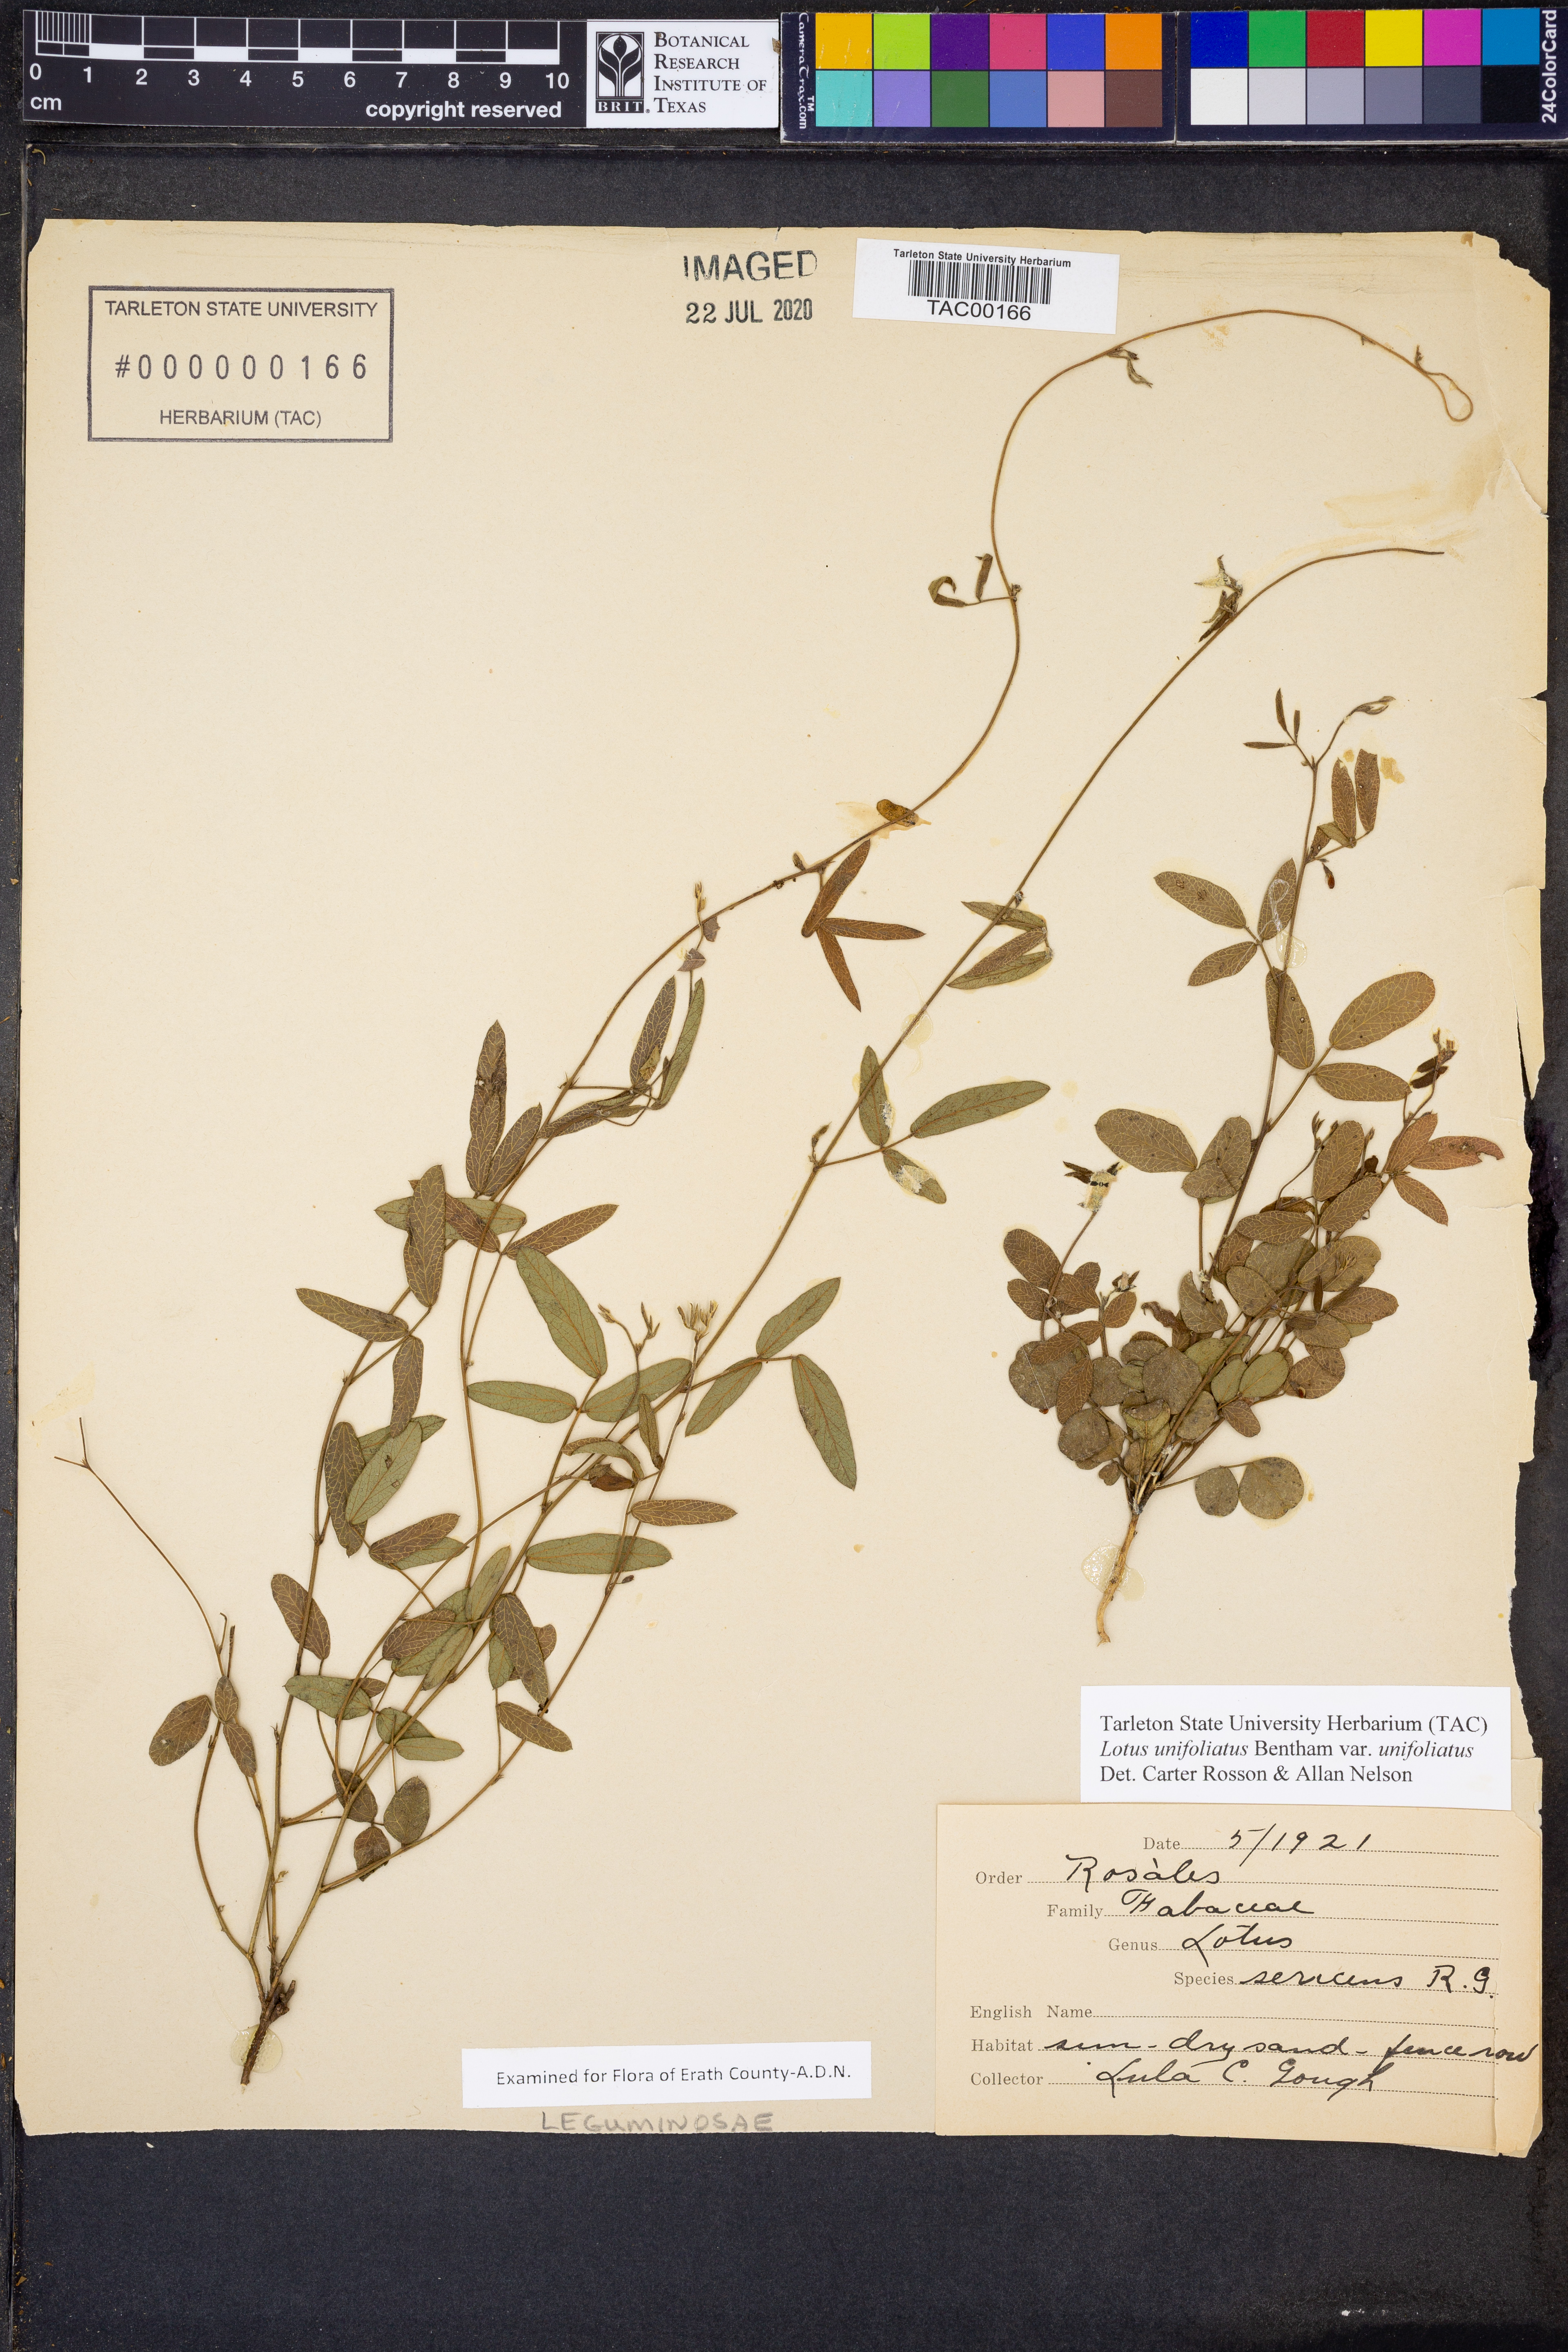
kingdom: Plantae
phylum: Tracheophyta
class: Magnoliopsida
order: Fabales
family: Fabaceae
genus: Acmispon
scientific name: Acmispon americanus
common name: American bird's-foot trefoil
